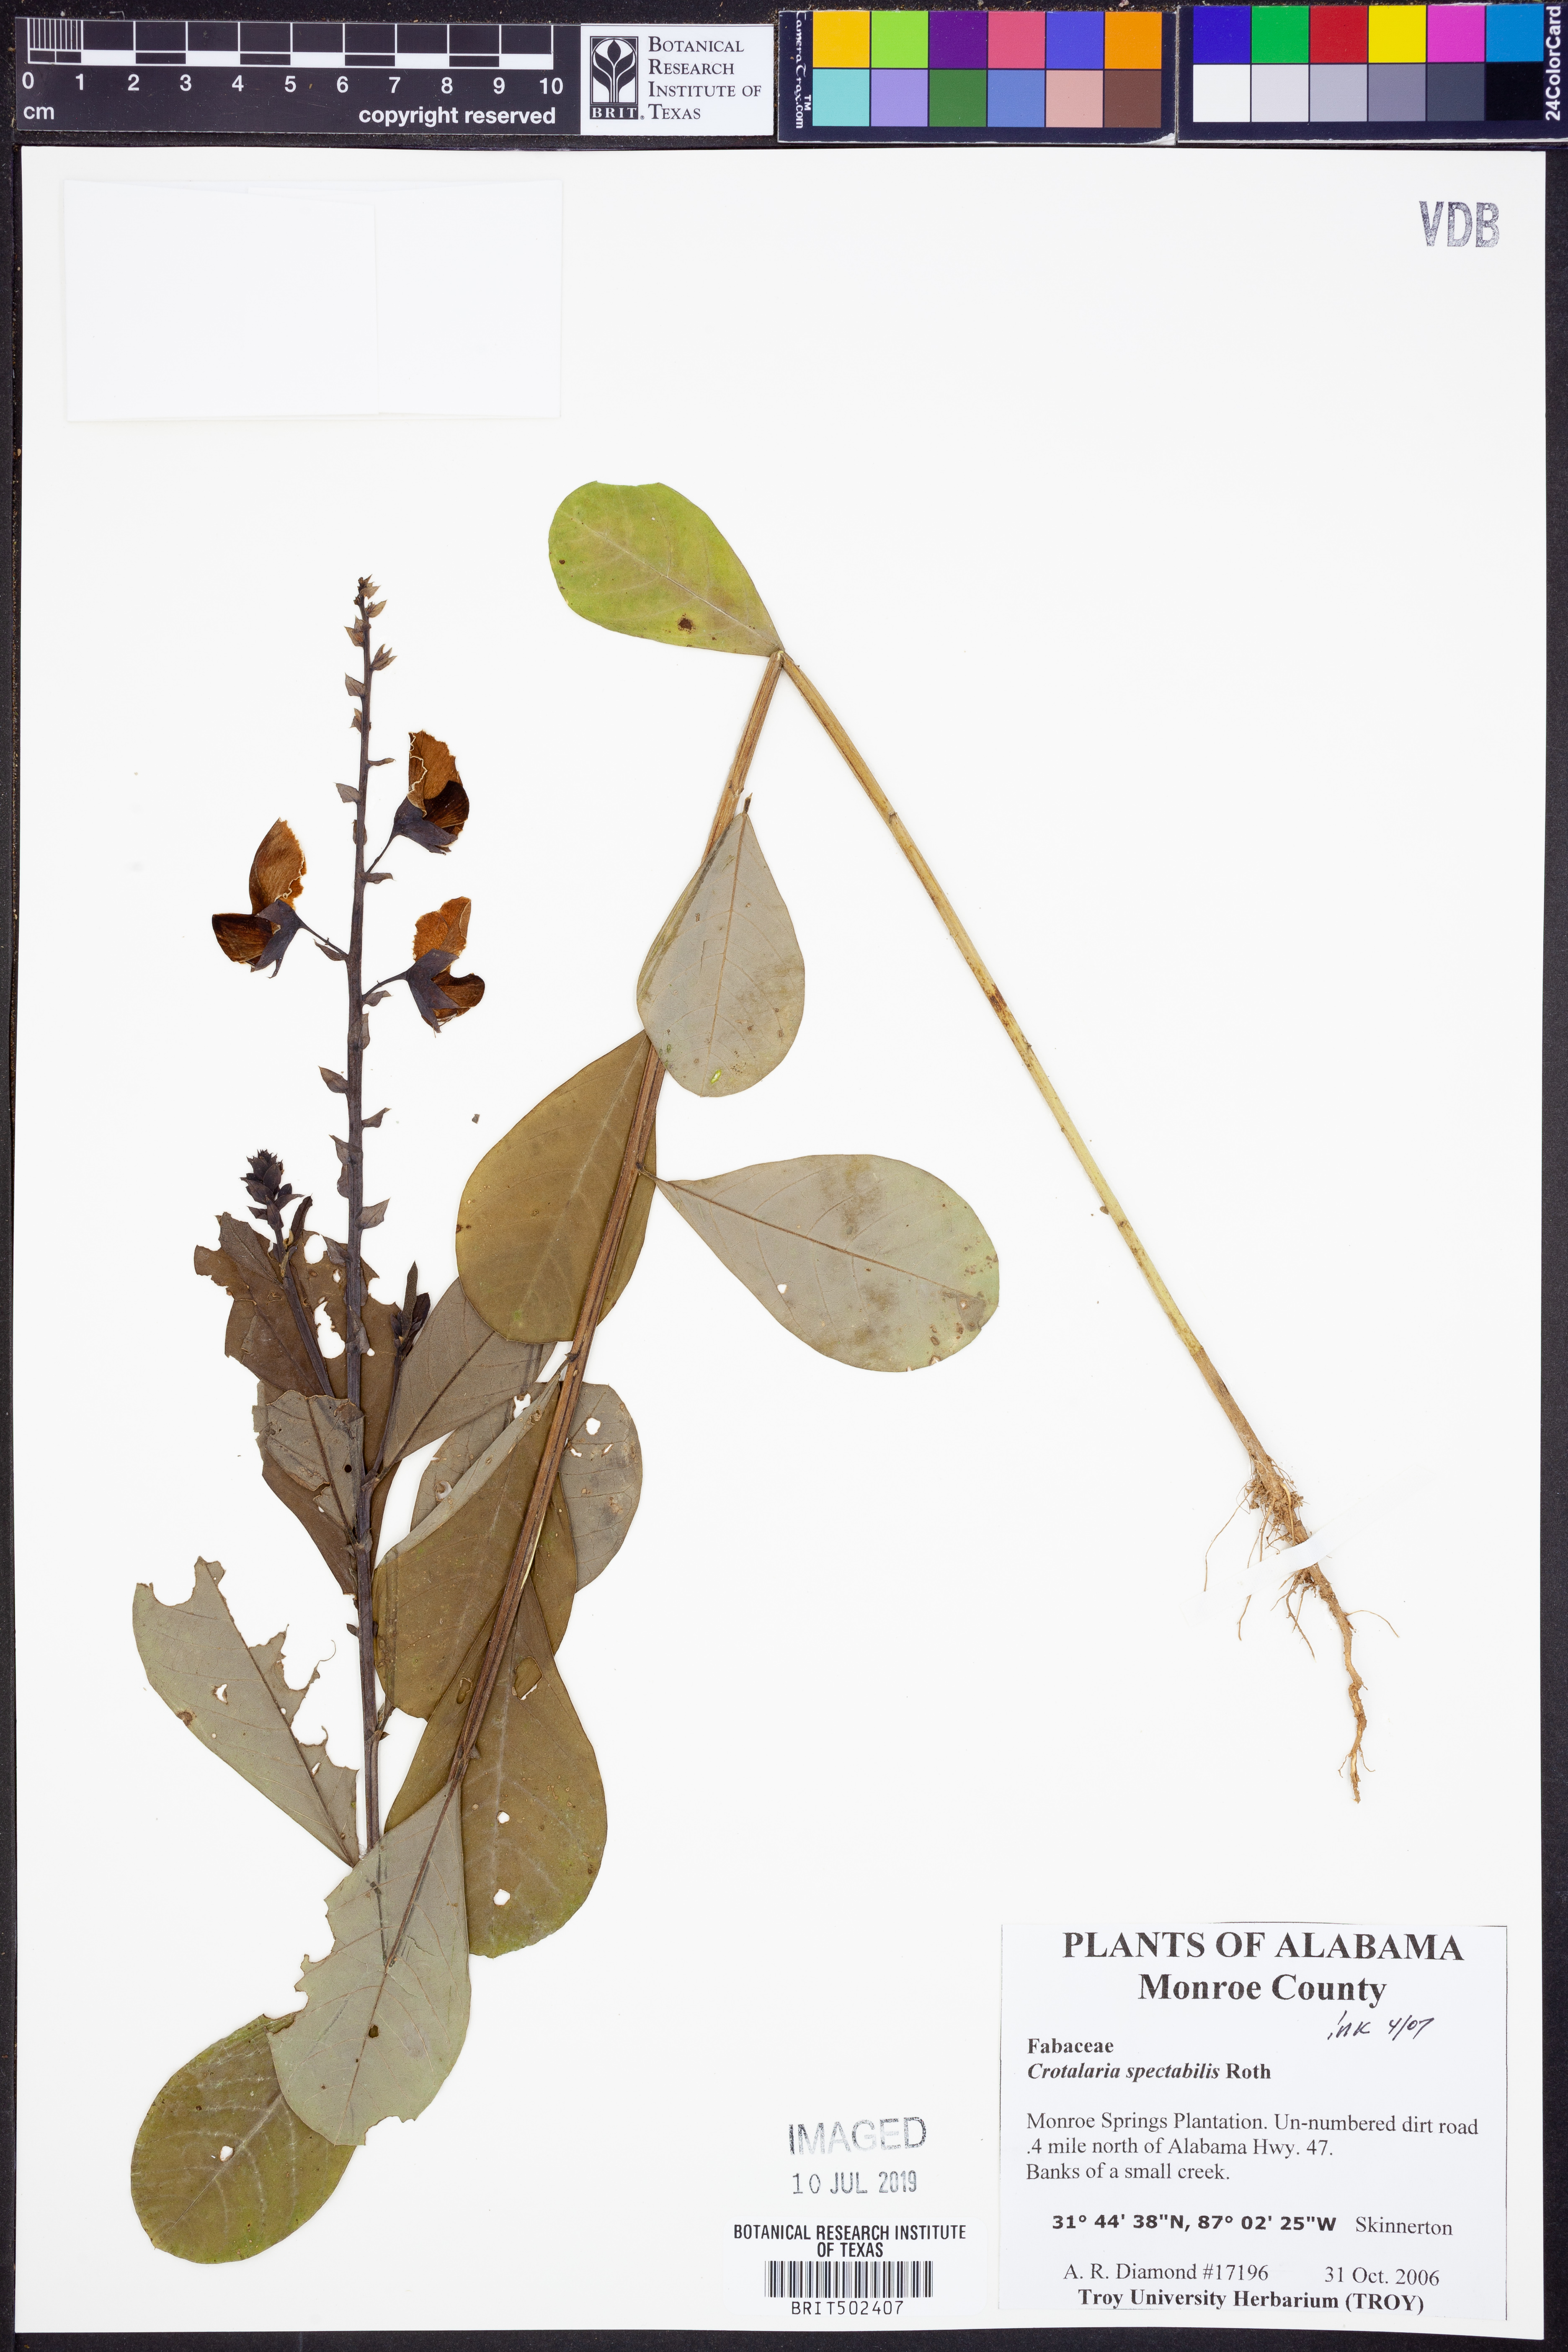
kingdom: Plantae
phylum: Tracheophyta
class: Magnoliopsida
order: Fabales
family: Fabaceae
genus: Crotalaria
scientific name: Crotalaria spectabilis
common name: Showy rattlebox
